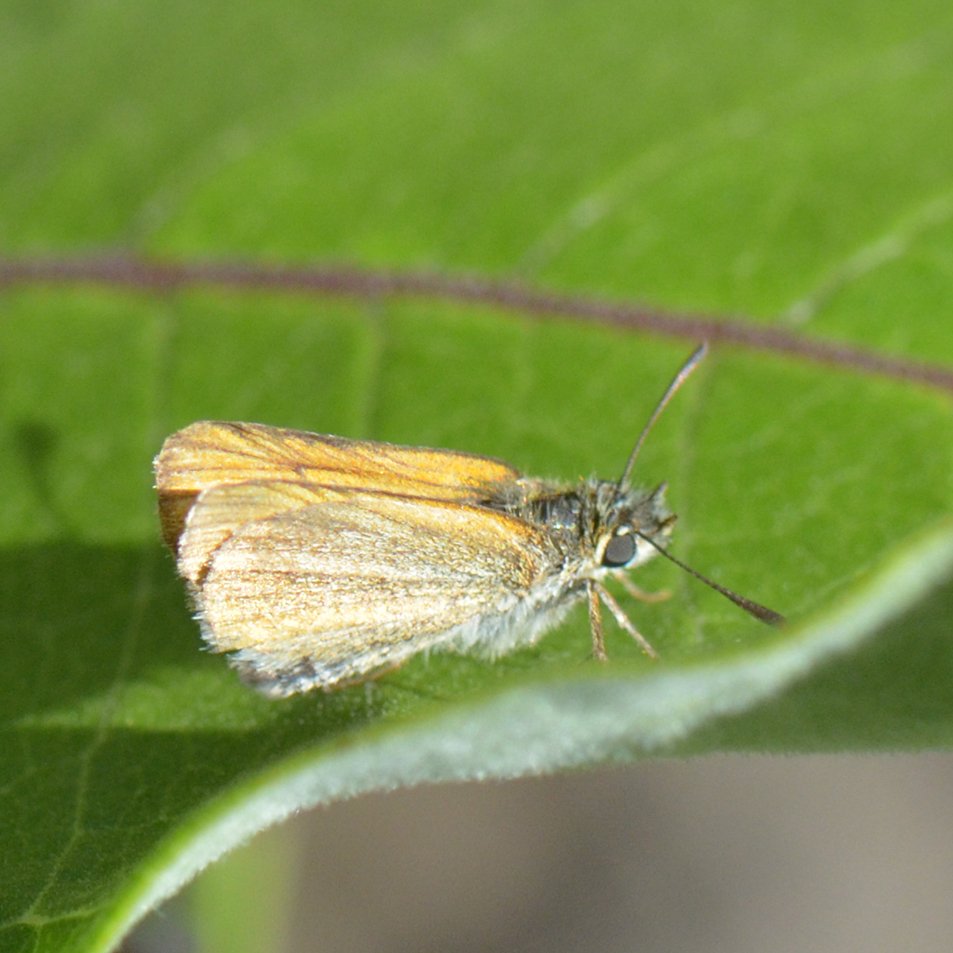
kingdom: Animalia
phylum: Arthropoda
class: Insecta
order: Lepidoptera
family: Hesperiidae
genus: Thymelicus
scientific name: Thymelicus lineola
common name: European Skipper
